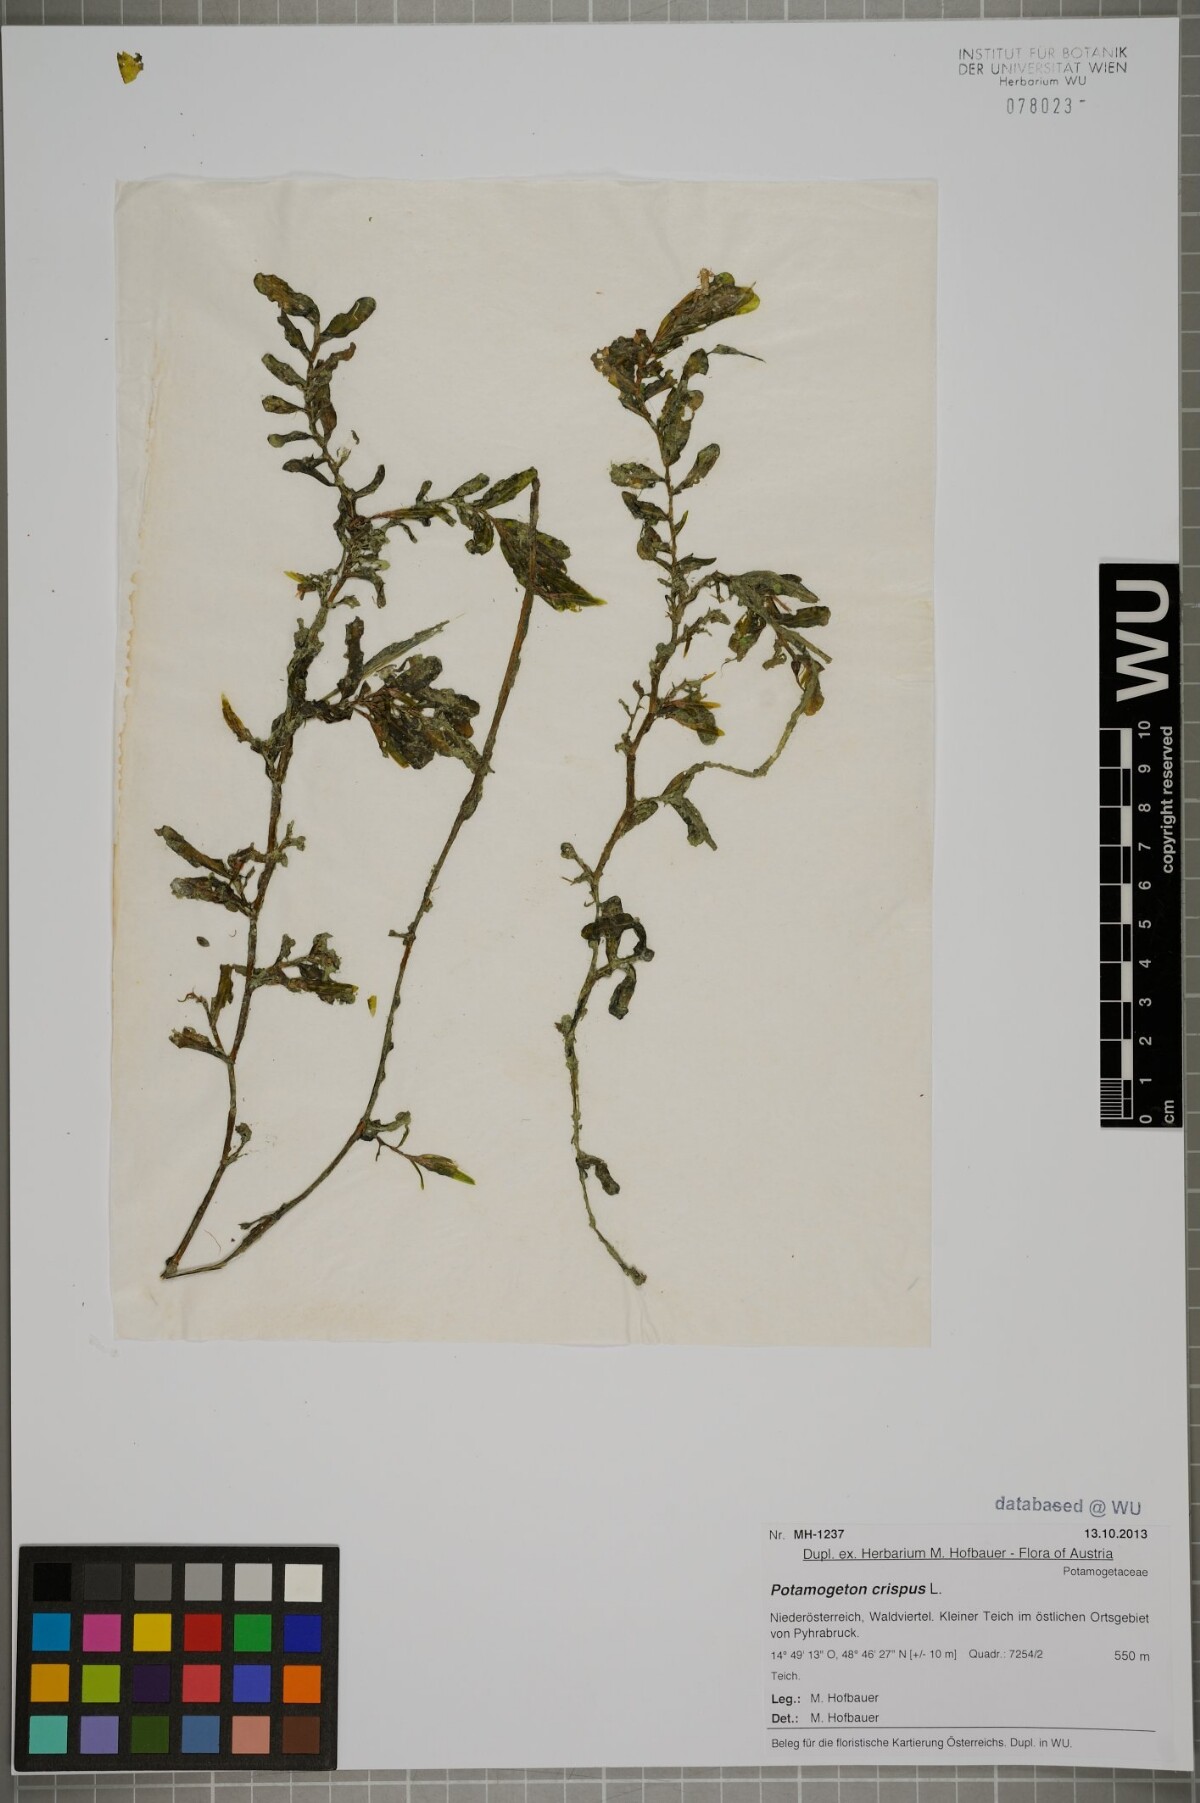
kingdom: Plantae
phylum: Tracheophyta
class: Liliopsida
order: Alismatales
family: Potamogetonaceae
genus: Potamogeton
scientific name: Potamogeton crispus
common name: Curled pondweed
